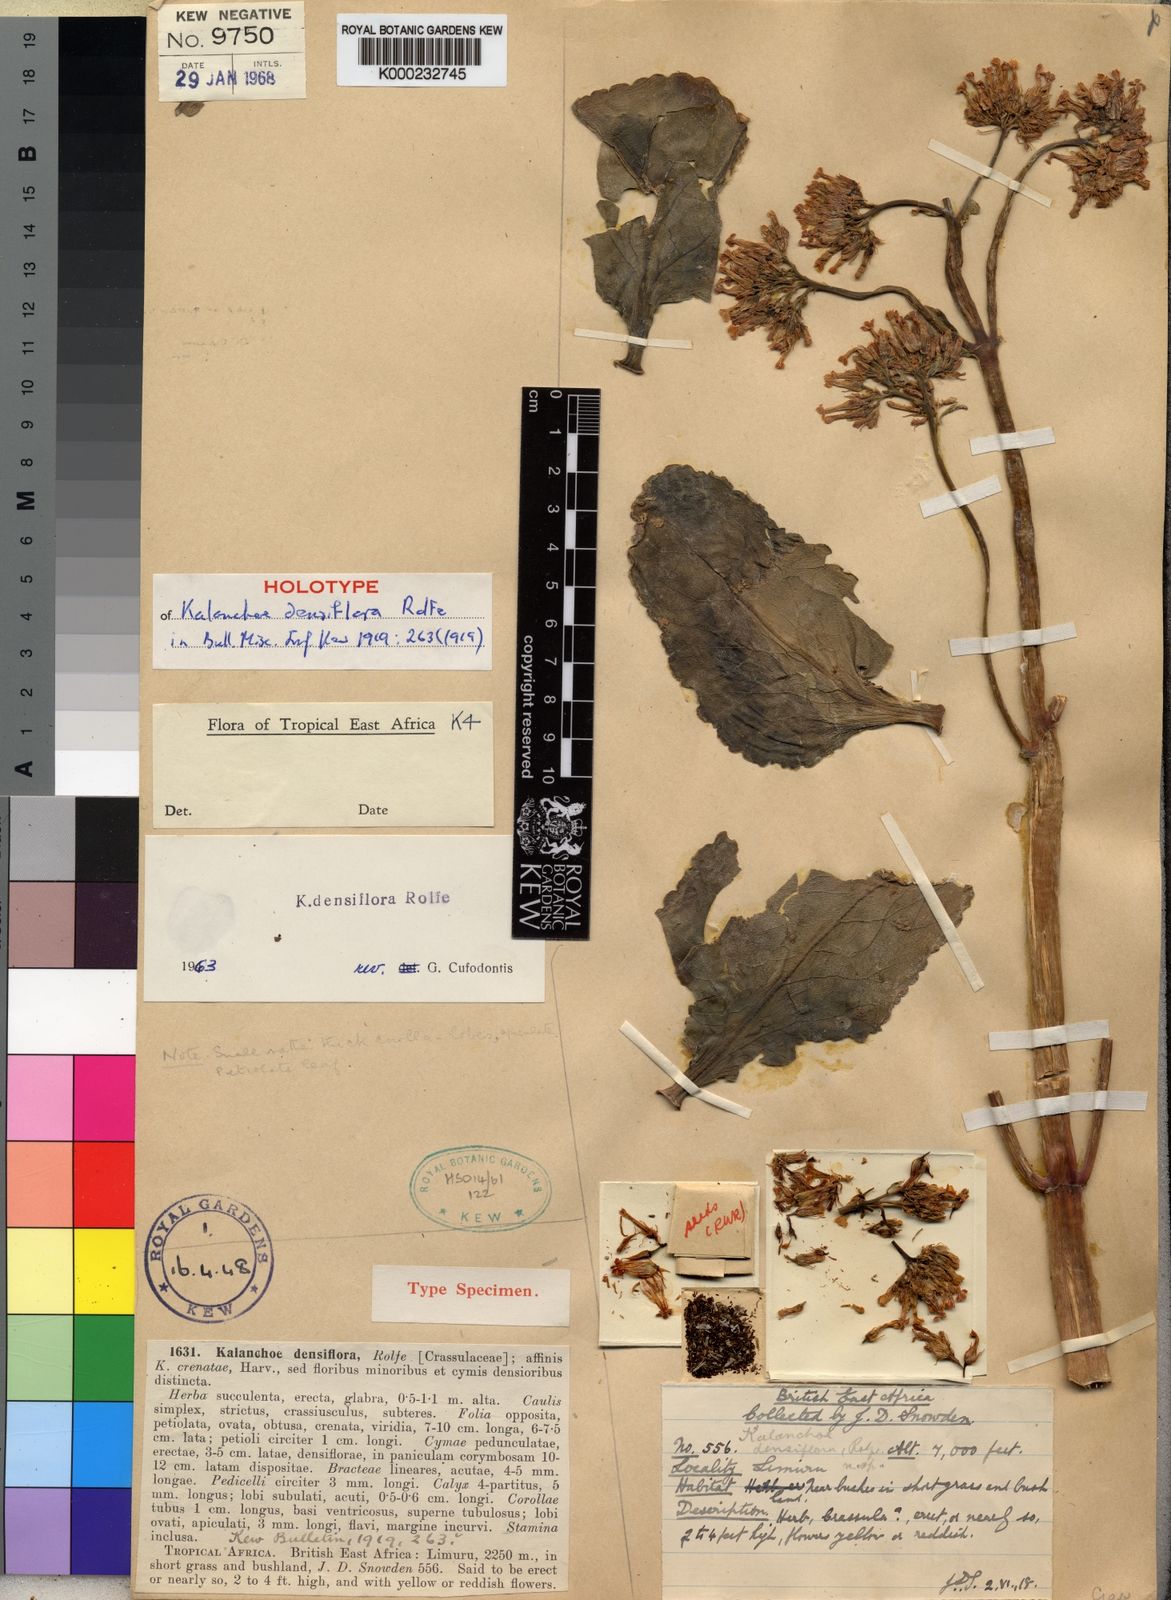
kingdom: Plantae
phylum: Tracheophyta
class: Magnoliopsida
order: Saxifragales
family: Crassulaceae
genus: Kalanchoe
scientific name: Kalanchoe densiflora
